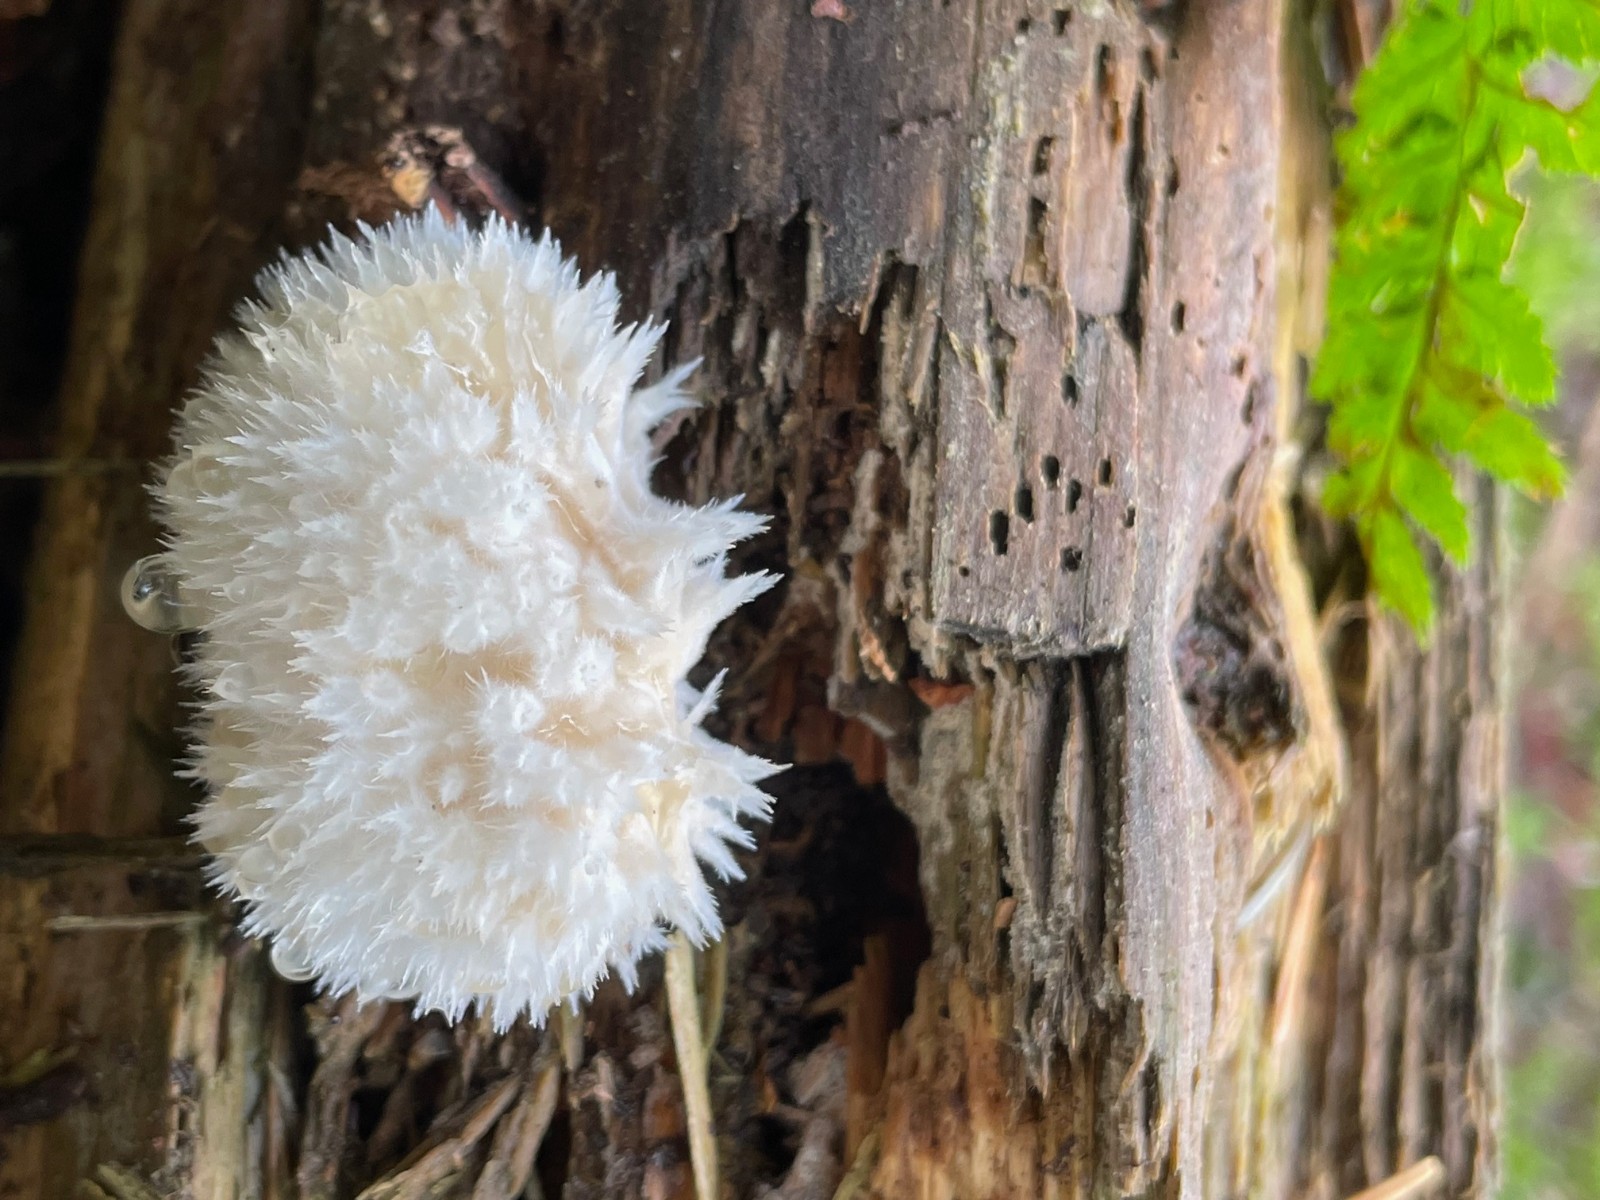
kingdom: Fungi
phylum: Basidiomycota
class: Agaricomycetes
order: Polyporales
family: Dacryobolaceae
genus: Postia
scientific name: Postia ptychogaster
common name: støvende kødporesvamp
